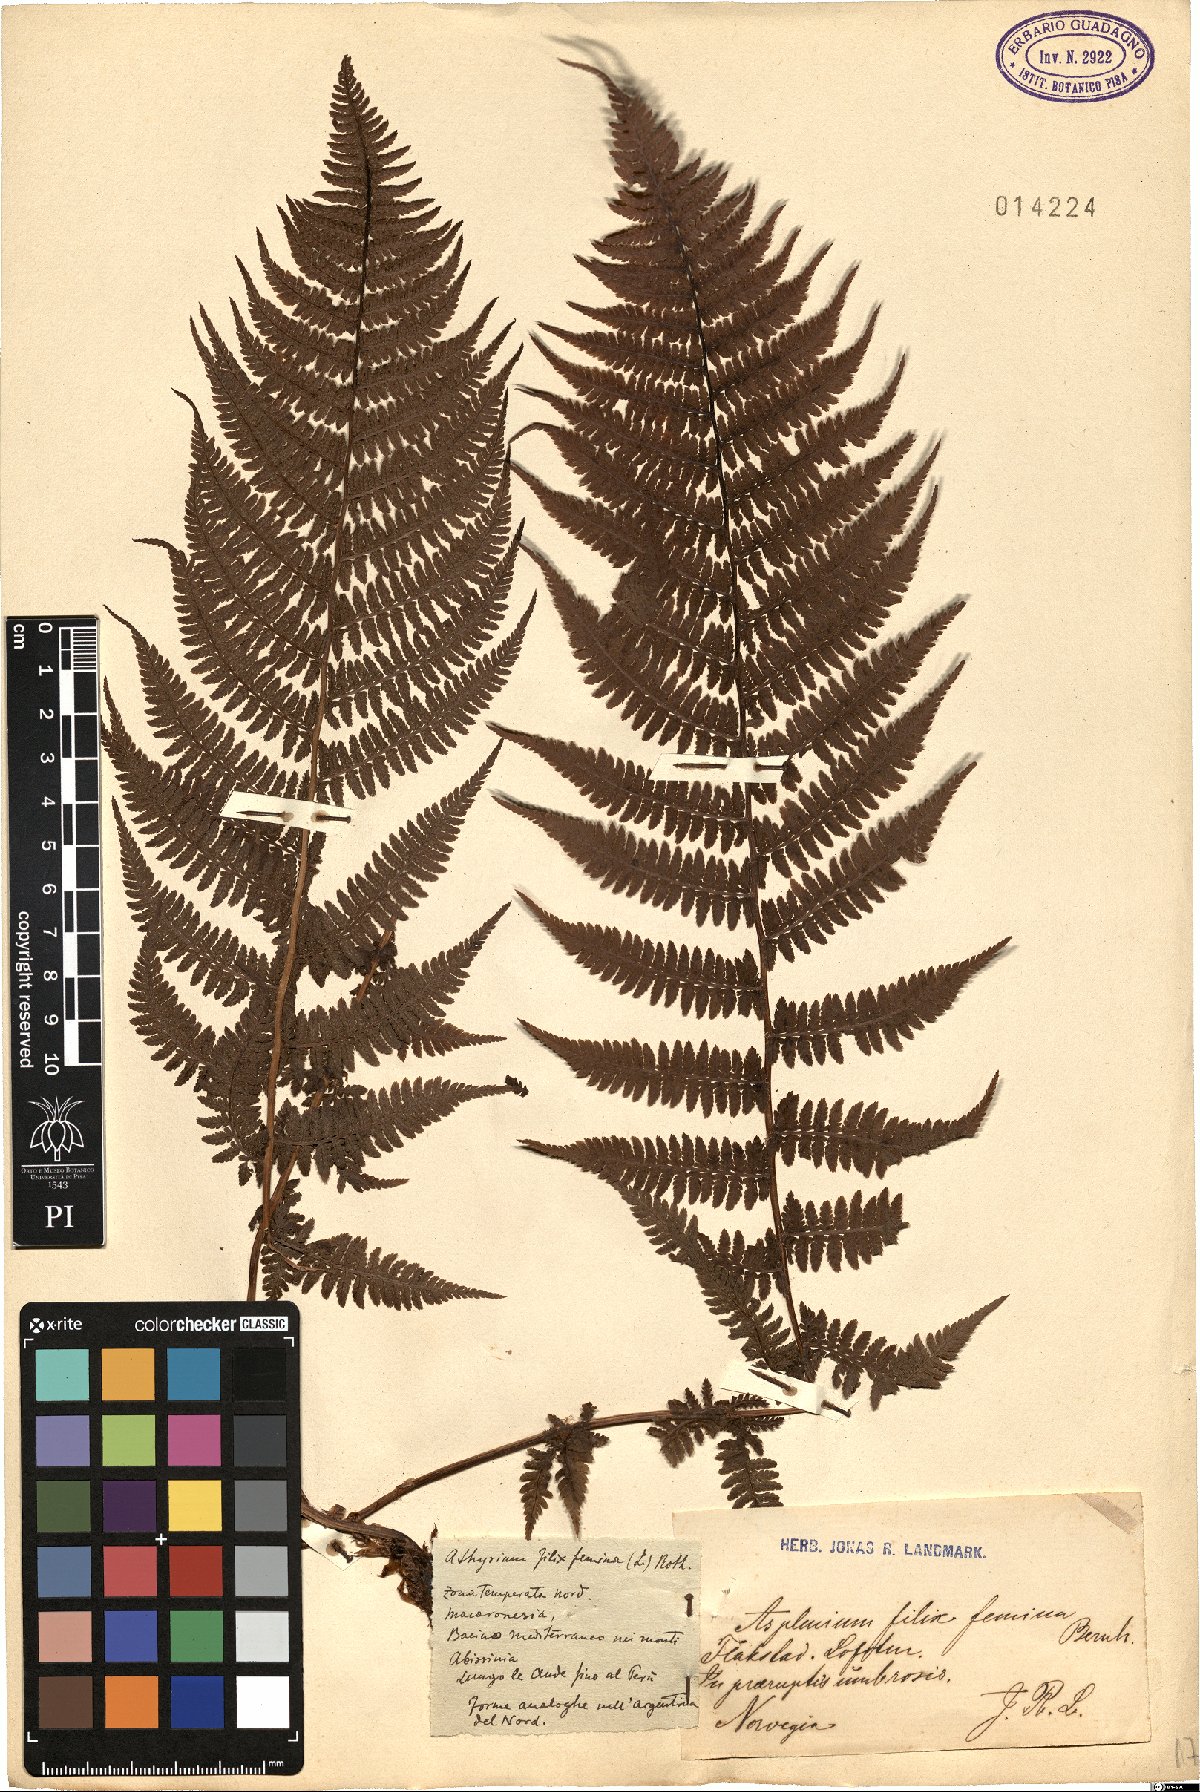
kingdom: Plantae
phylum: Tracheophyta
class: Polypodiopsida
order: Polypodiales
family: Athyriaceae
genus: Athyrium
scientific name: Athyrium filix-femina
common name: Lady fern
